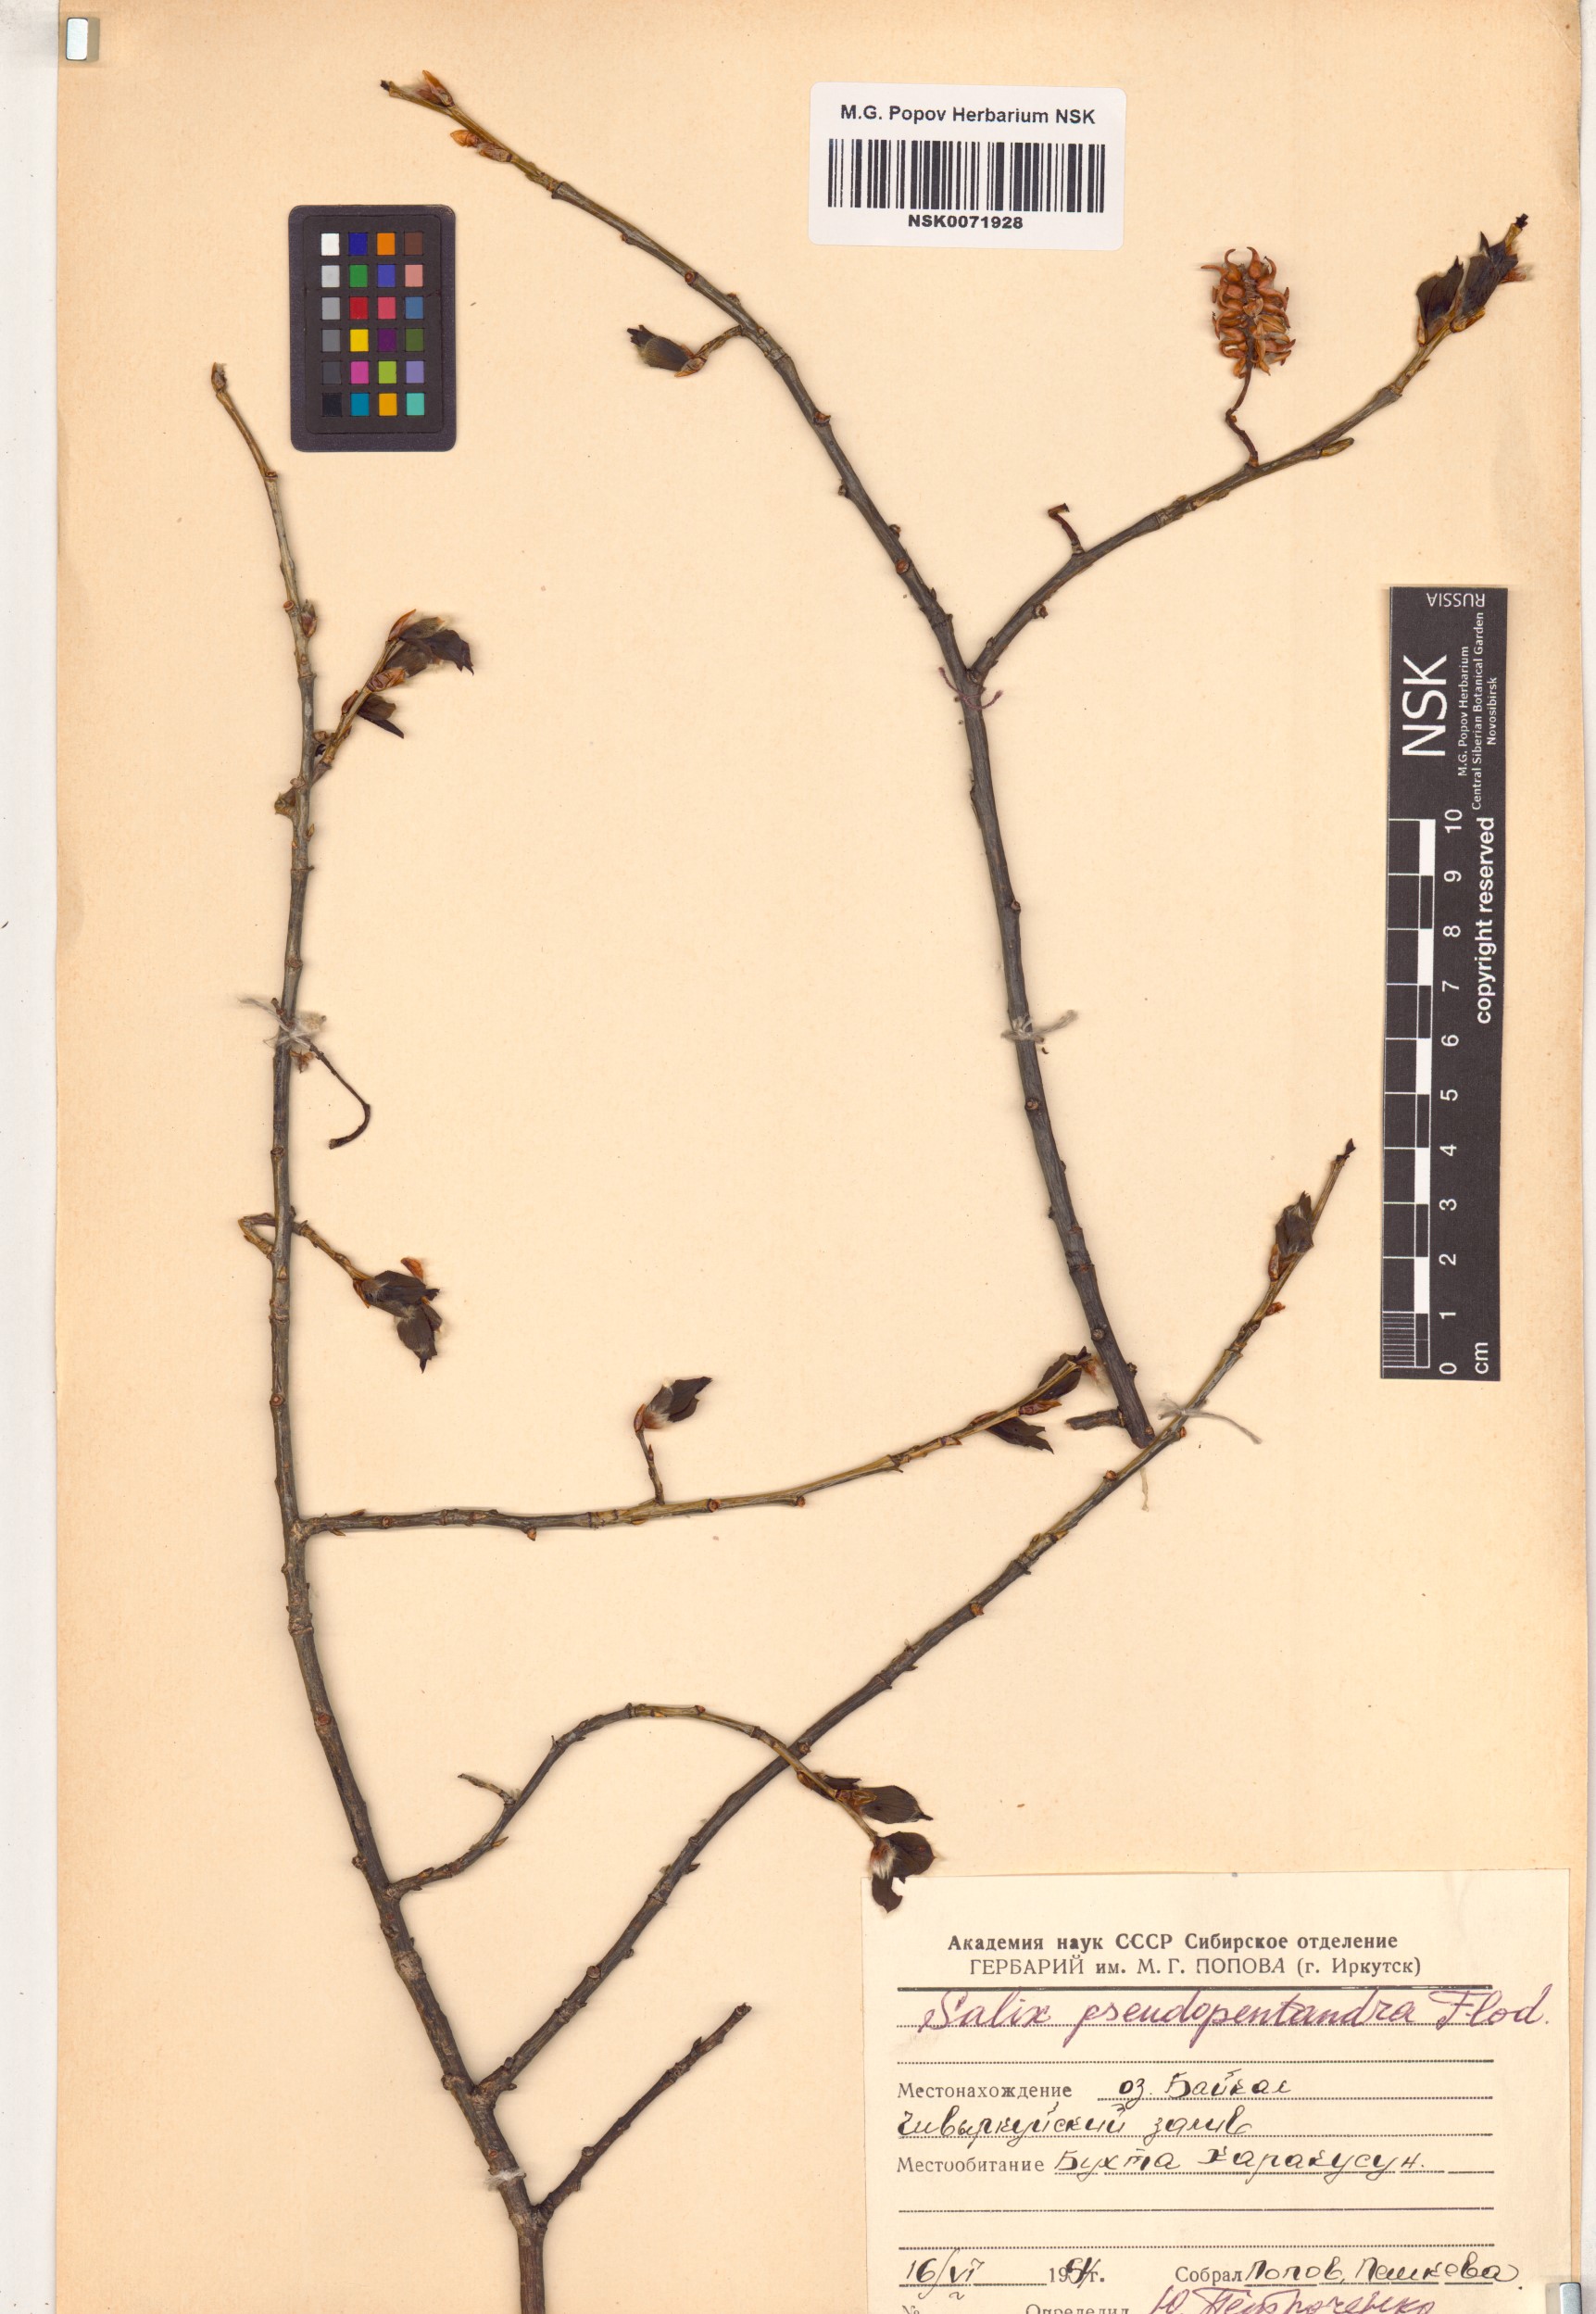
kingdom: Plantae
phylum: Tracheophyta
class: Magnoliopsida
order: Malpighiales
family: Salicaceae
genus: Salix
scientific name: Salix pseudopentandra
